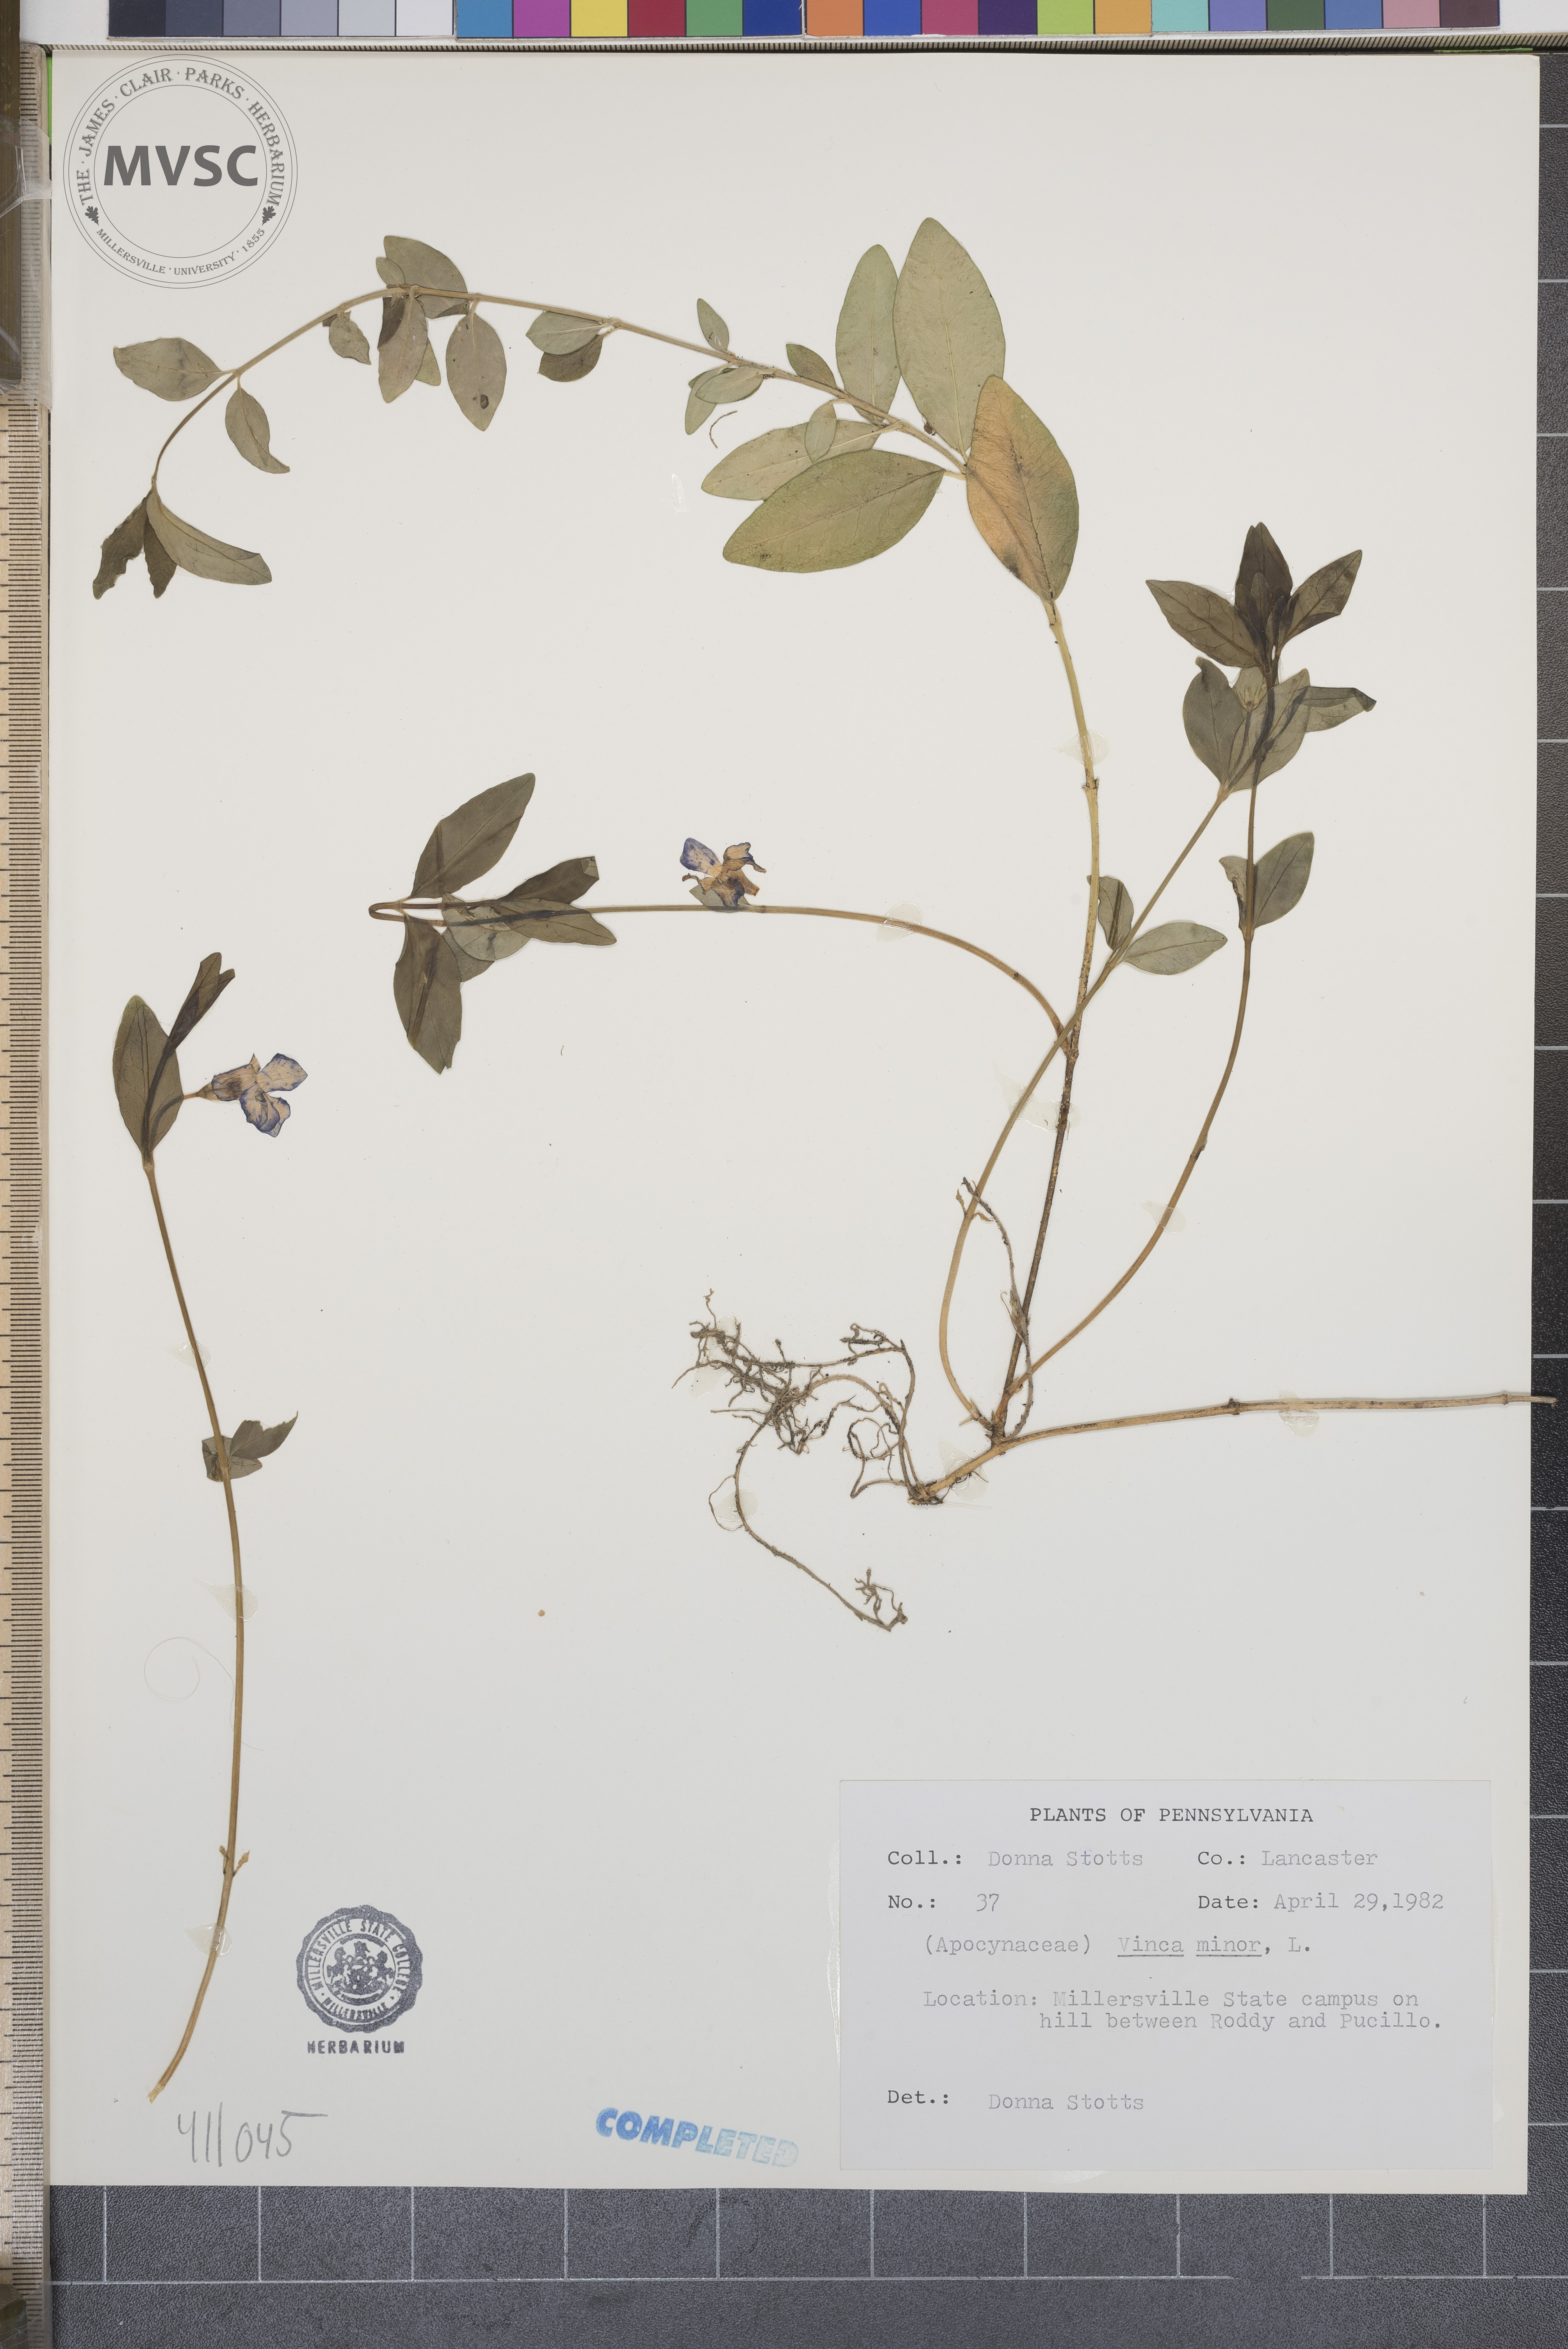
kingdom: Plantae
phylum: Tracheophyta
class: Magnoliopsida
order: Gentianales
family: Apocynaceae
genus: Vinca
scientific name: Vinca minor
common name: Lesser periwinkle
